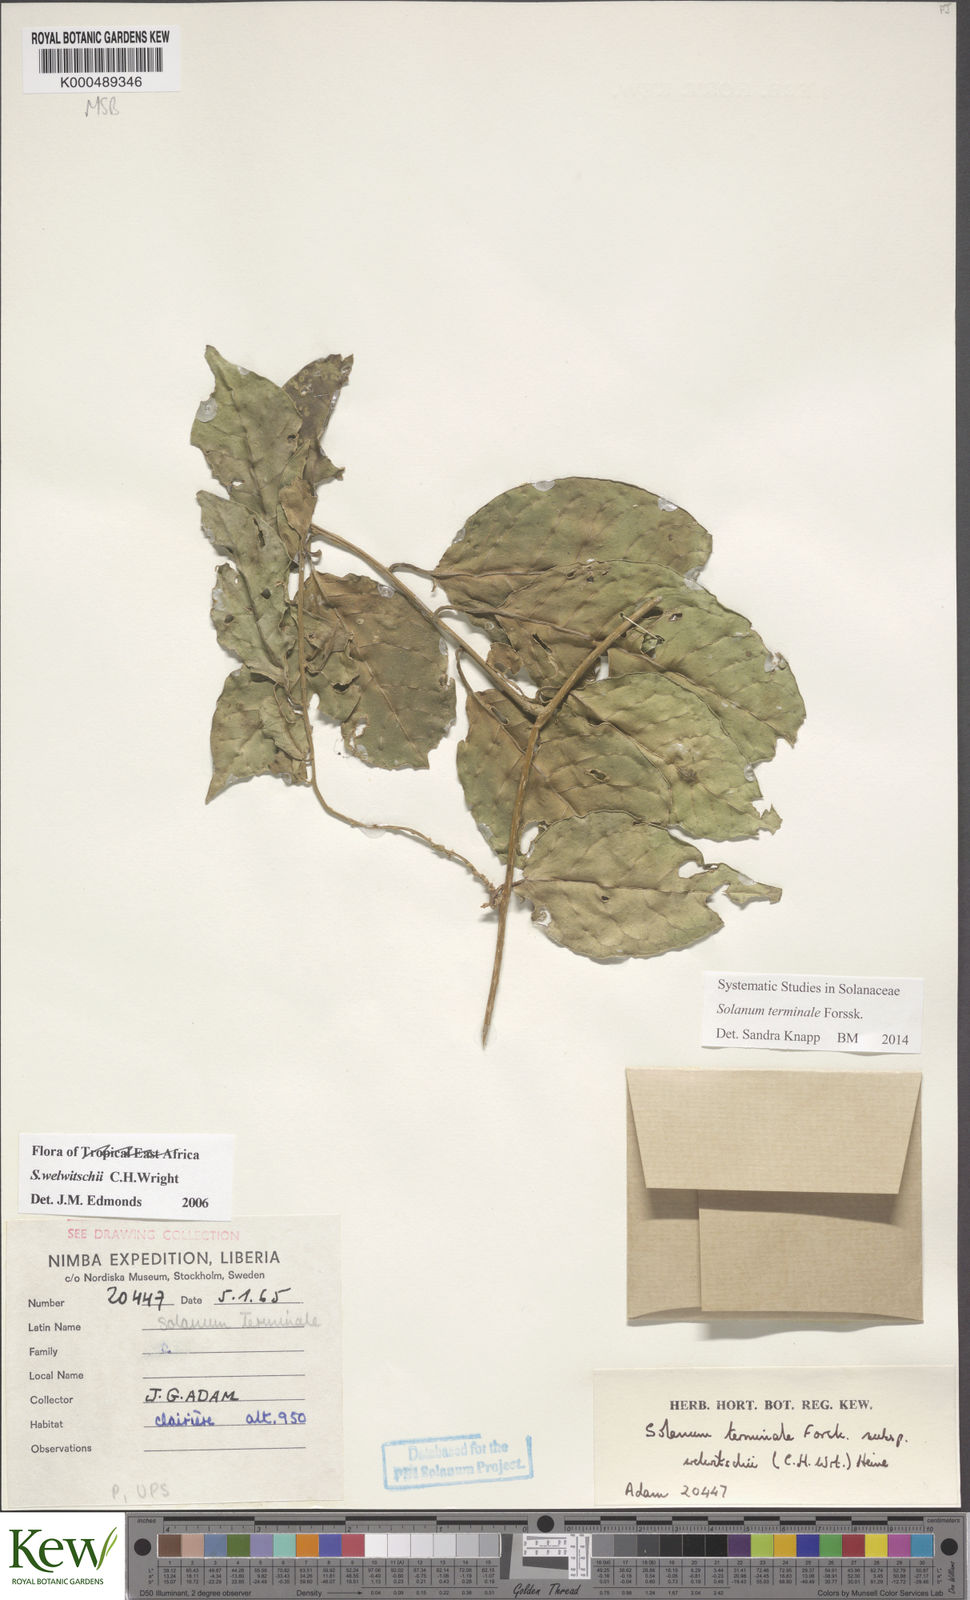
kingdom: Plantae
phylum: Tracheophyta
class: Magnoliopsida
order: Solanales
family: Solanaceae
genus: Solanum
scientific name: Solanum terminale
